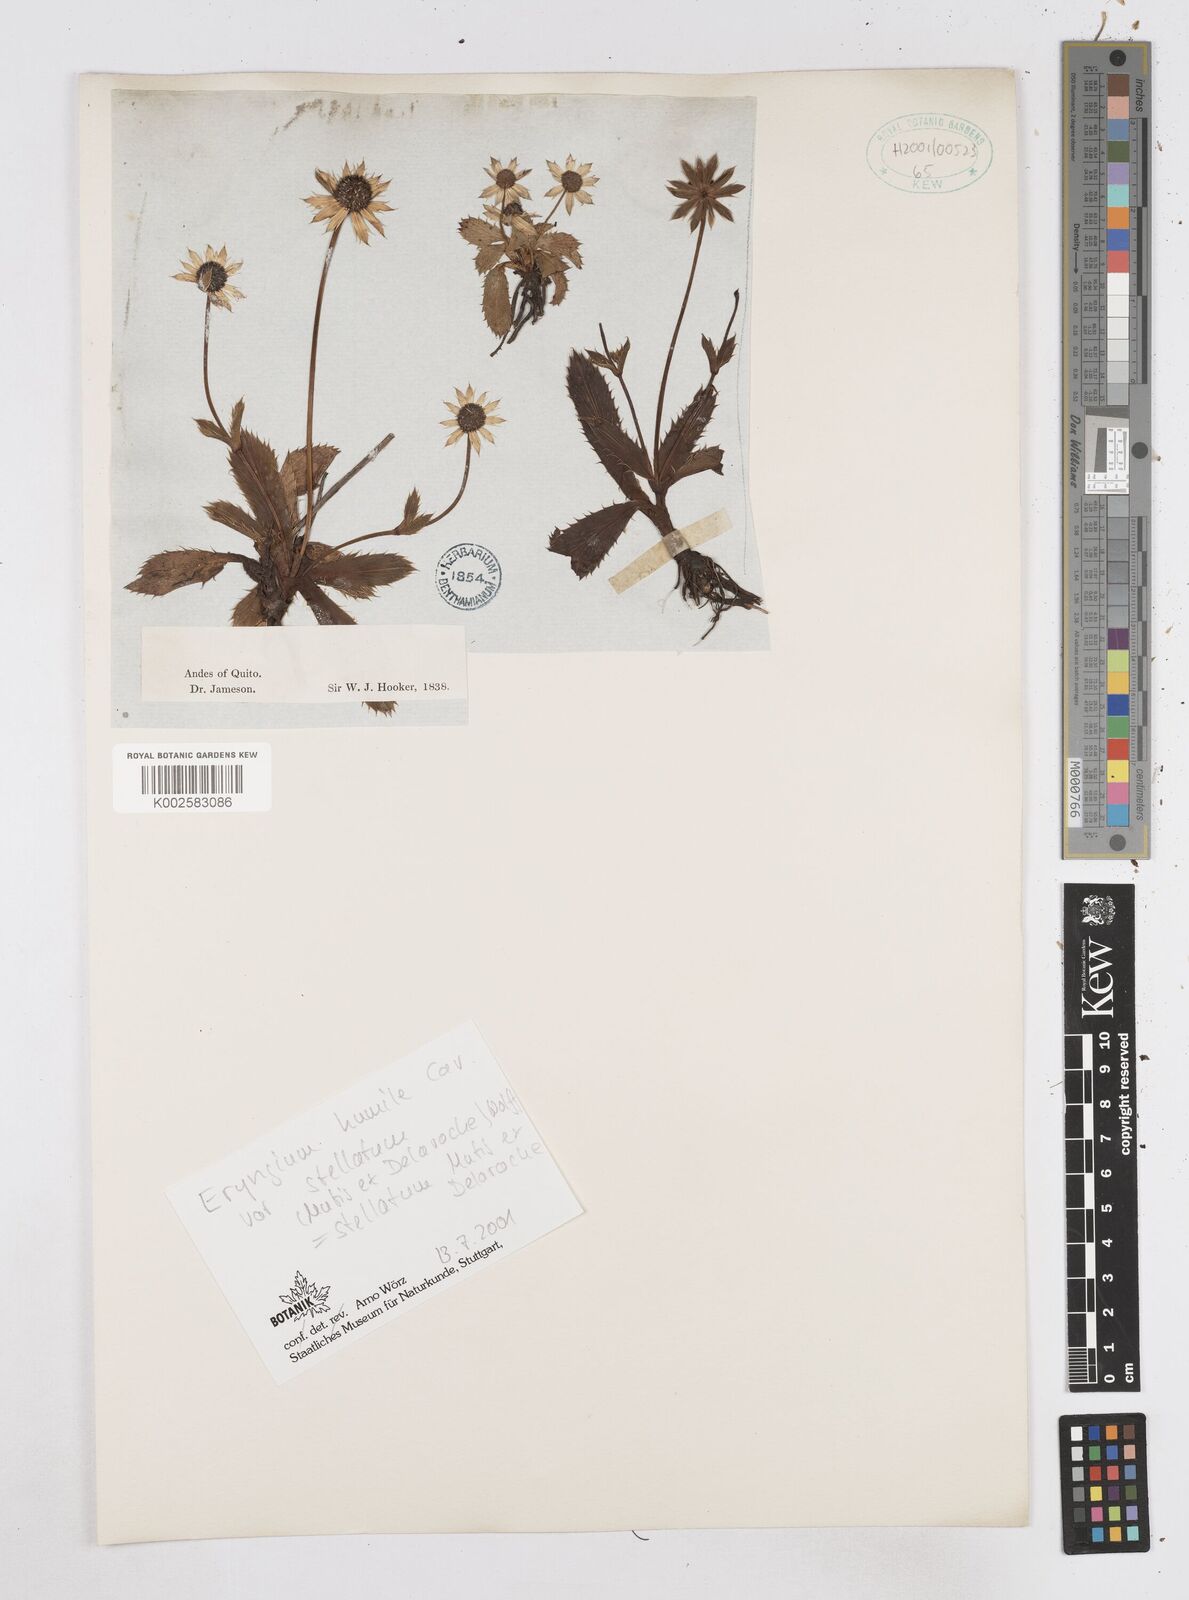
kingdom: Plantae
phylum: Tracheophyta
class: Magnoliopsida
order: Apiales
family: Apiaceae
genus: Eryngium
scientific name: Eryngium humile
